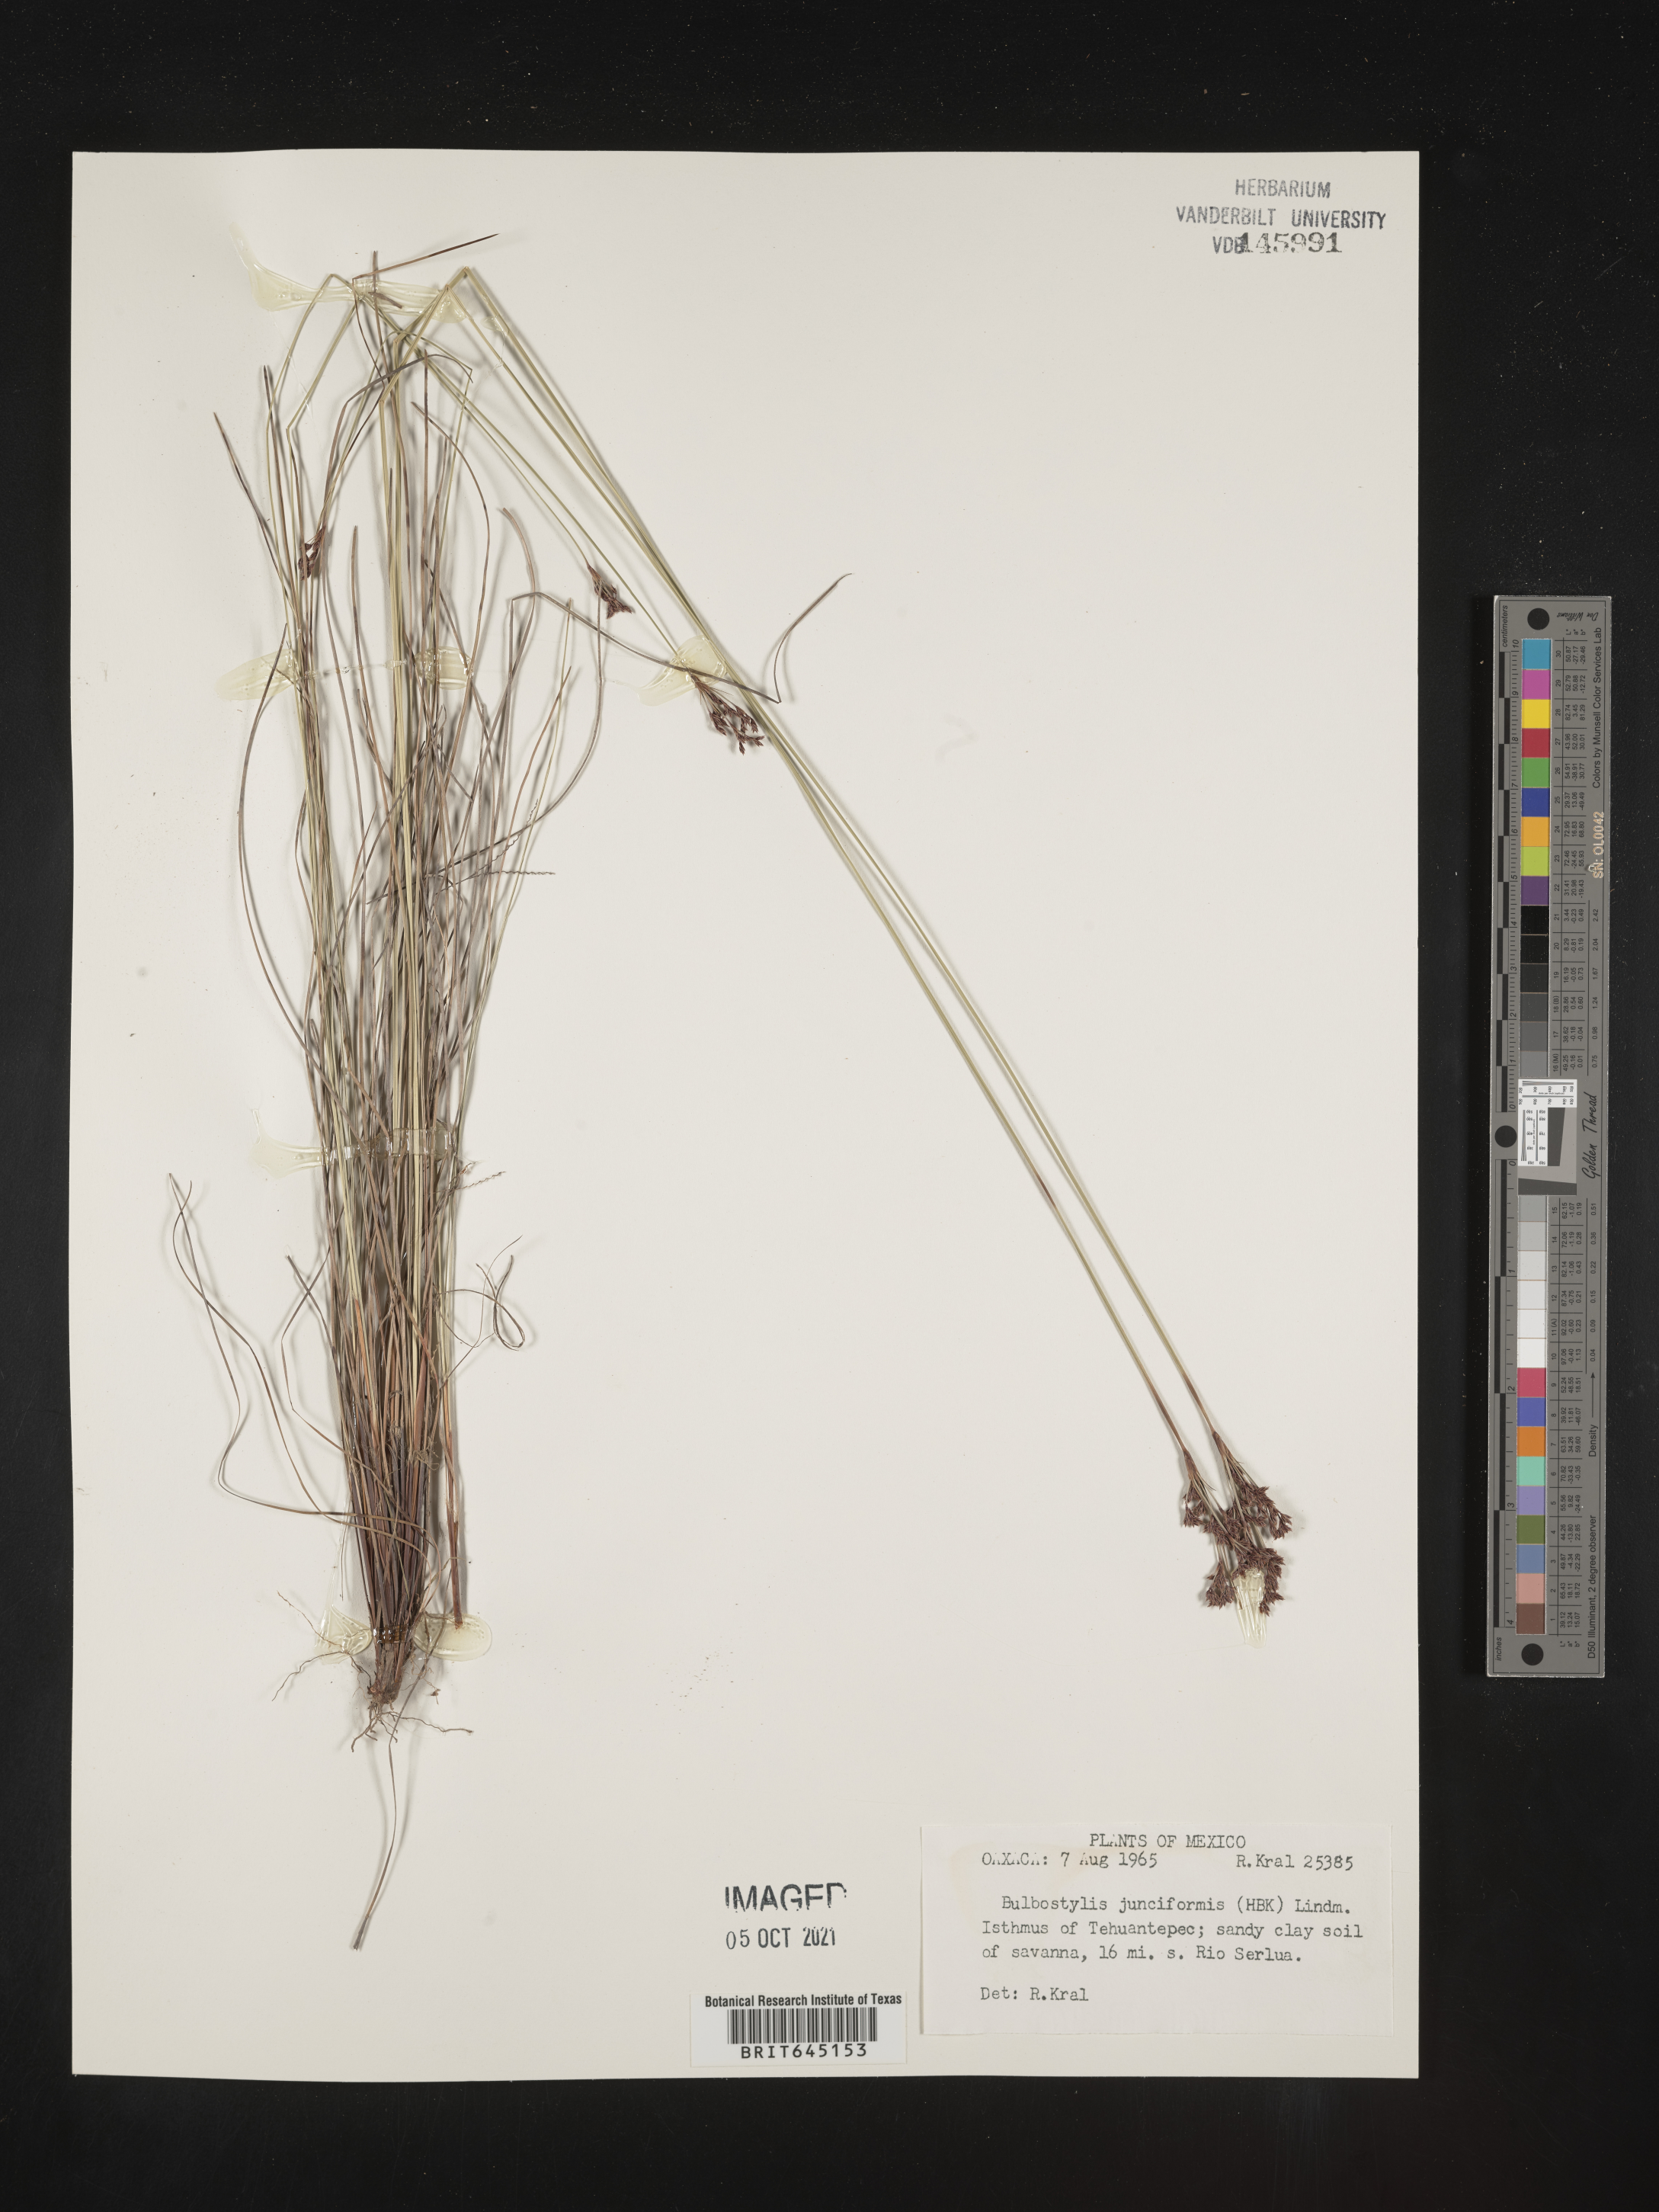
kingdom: Plantae
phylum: Tracheophyta
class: Liliopsida
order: Poales
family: Cyperaceae
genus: Bulbostylis
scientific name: Bulbostylis junciformis
